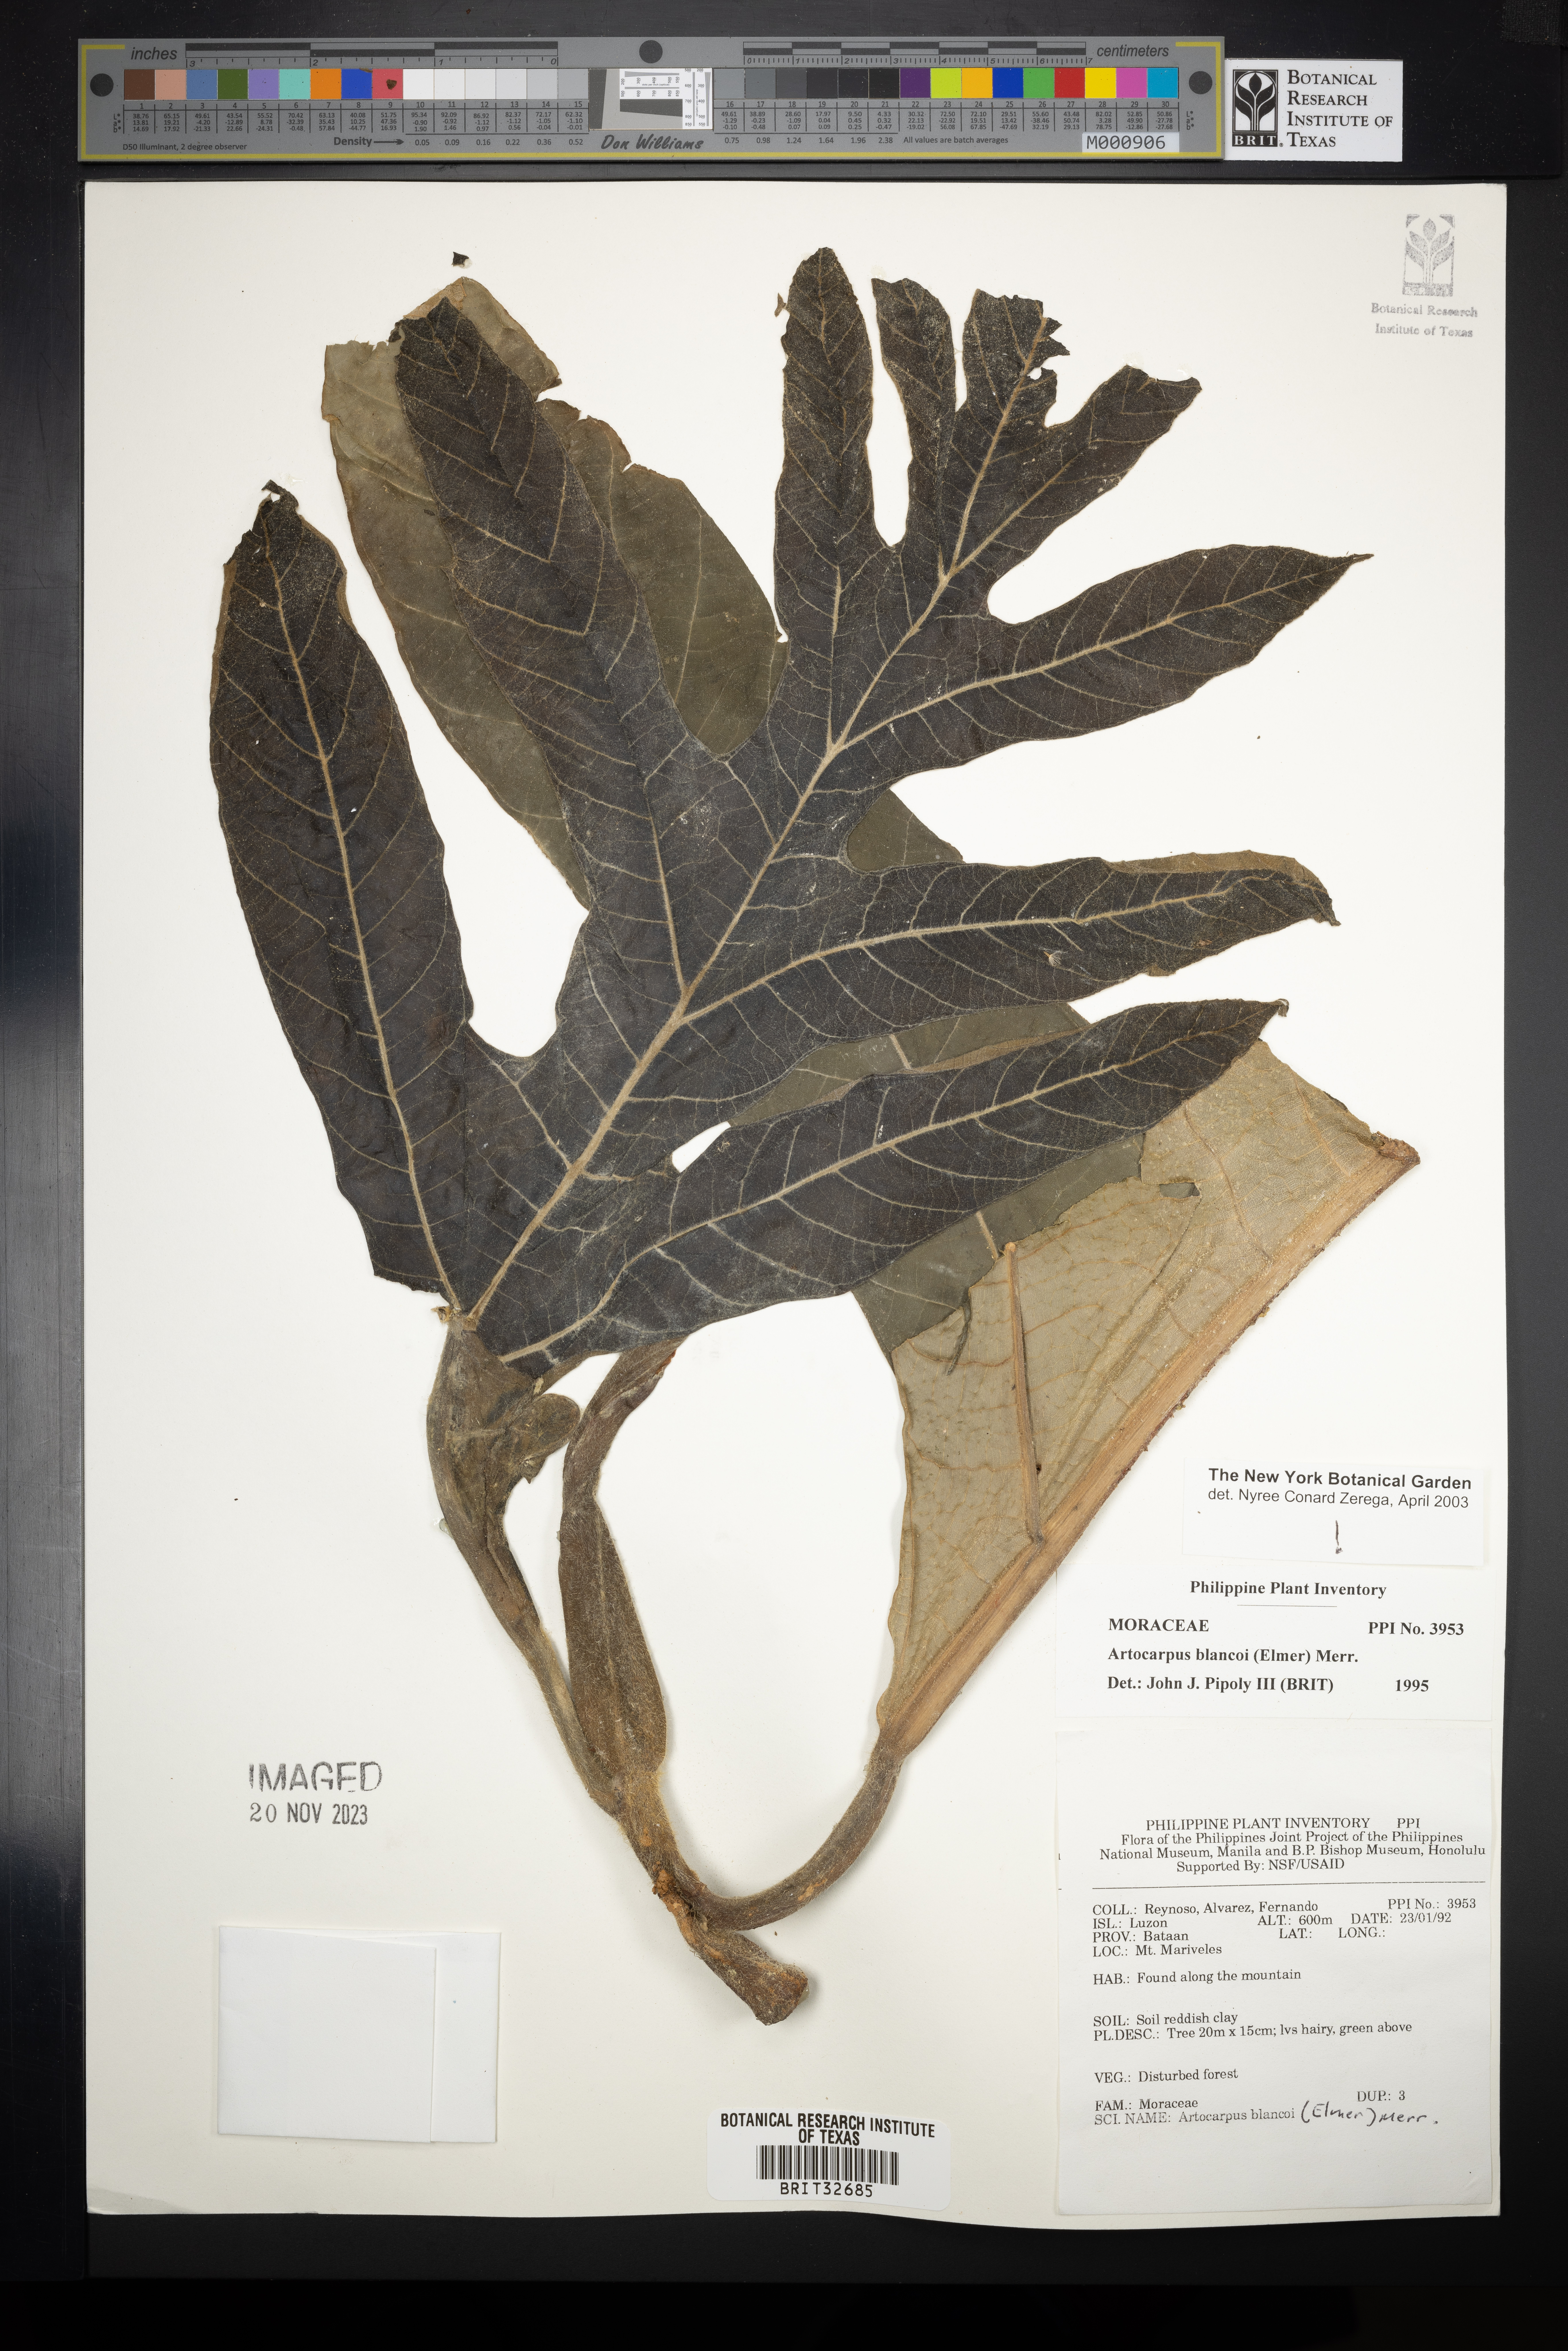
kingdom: Plantae
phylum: Tracheophyta
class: Magnoliopsida
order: Rosales
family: Moraceae
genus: Artocarpus
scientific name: Artocarpus altilis
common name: Breadfruit
